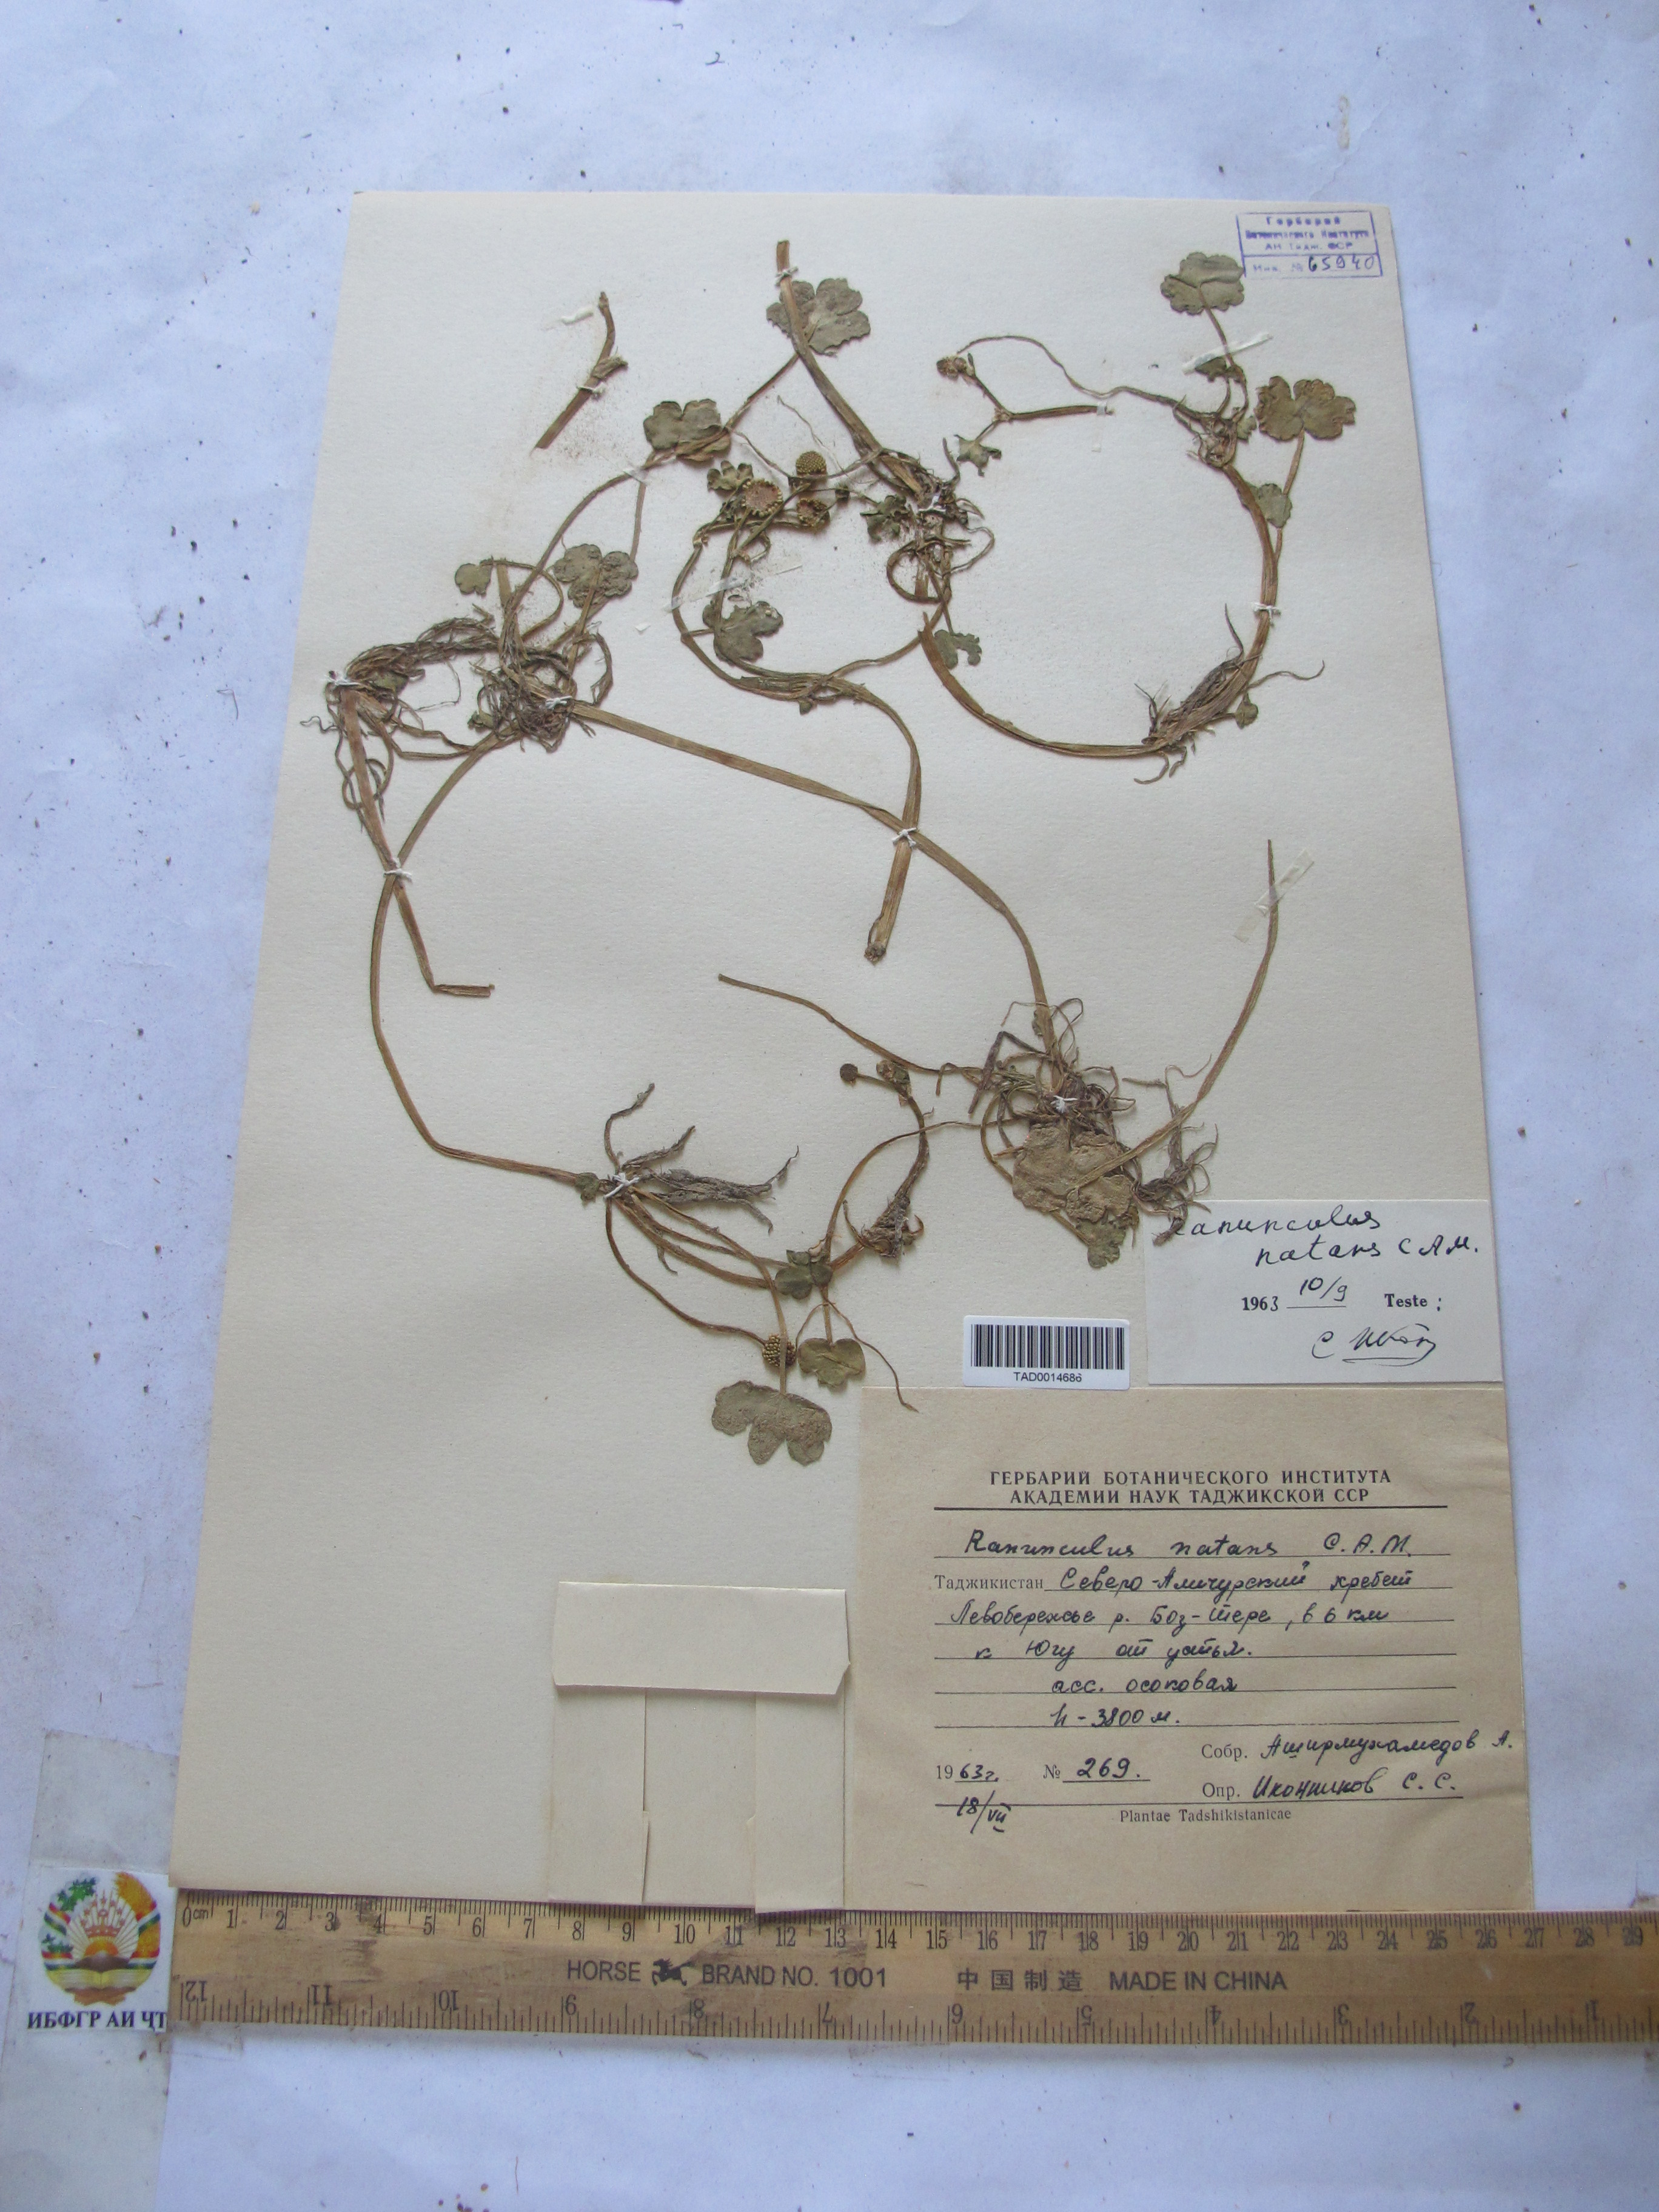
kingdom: Plantae
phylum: Tracheophyta
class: Magnoliopsida
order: Ranunculales
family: Ranunculaceae
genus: Ranunculus
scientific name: Ranunculus natans
